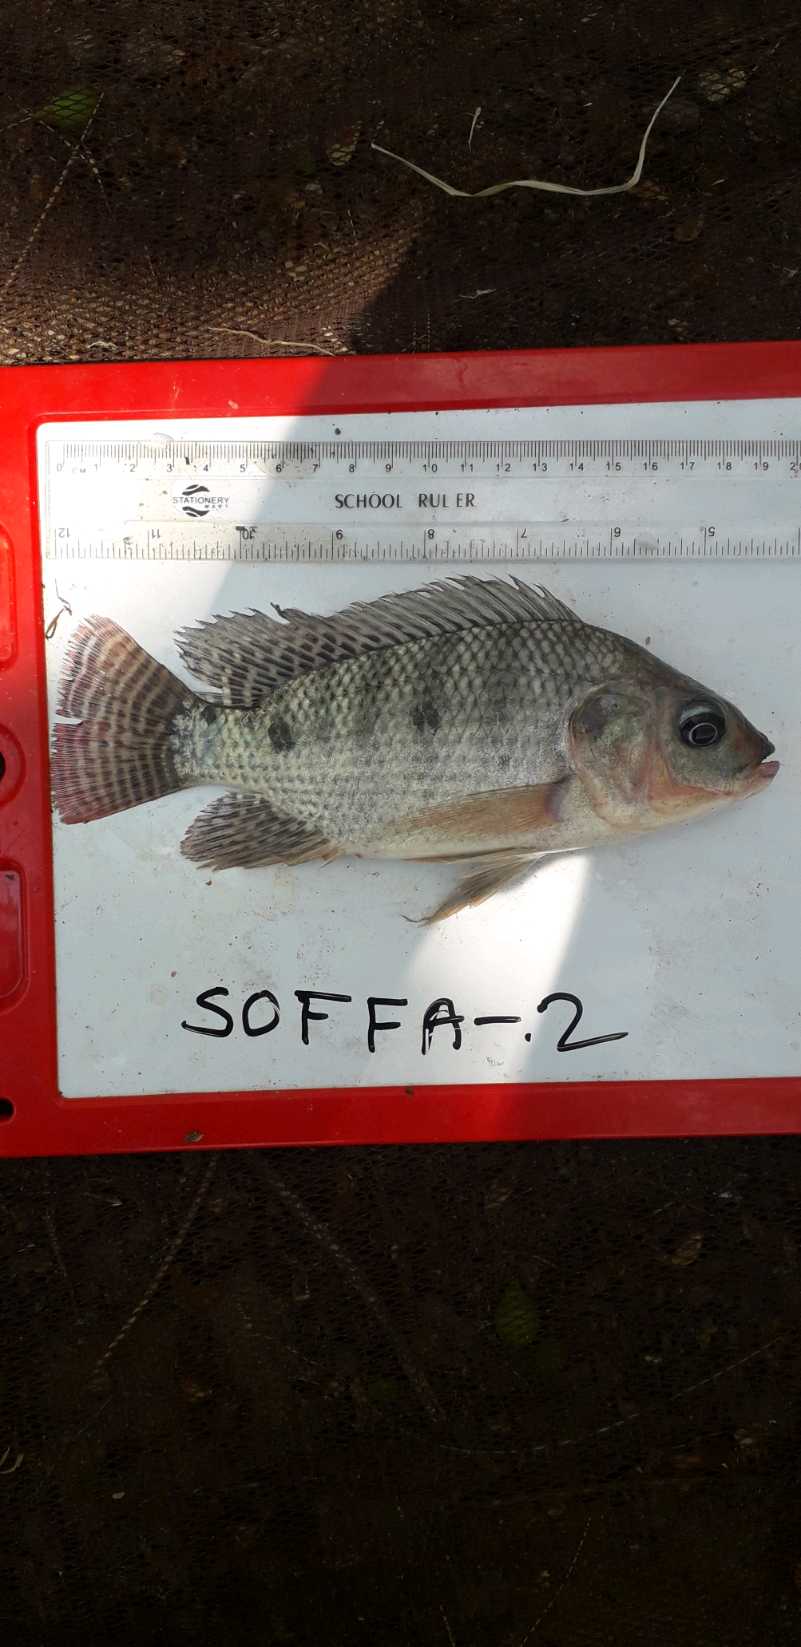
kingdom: Animalia
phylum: Chordata
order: Perciformes
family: Cichlidae
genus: Oreochromis
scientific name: Oreochromis
